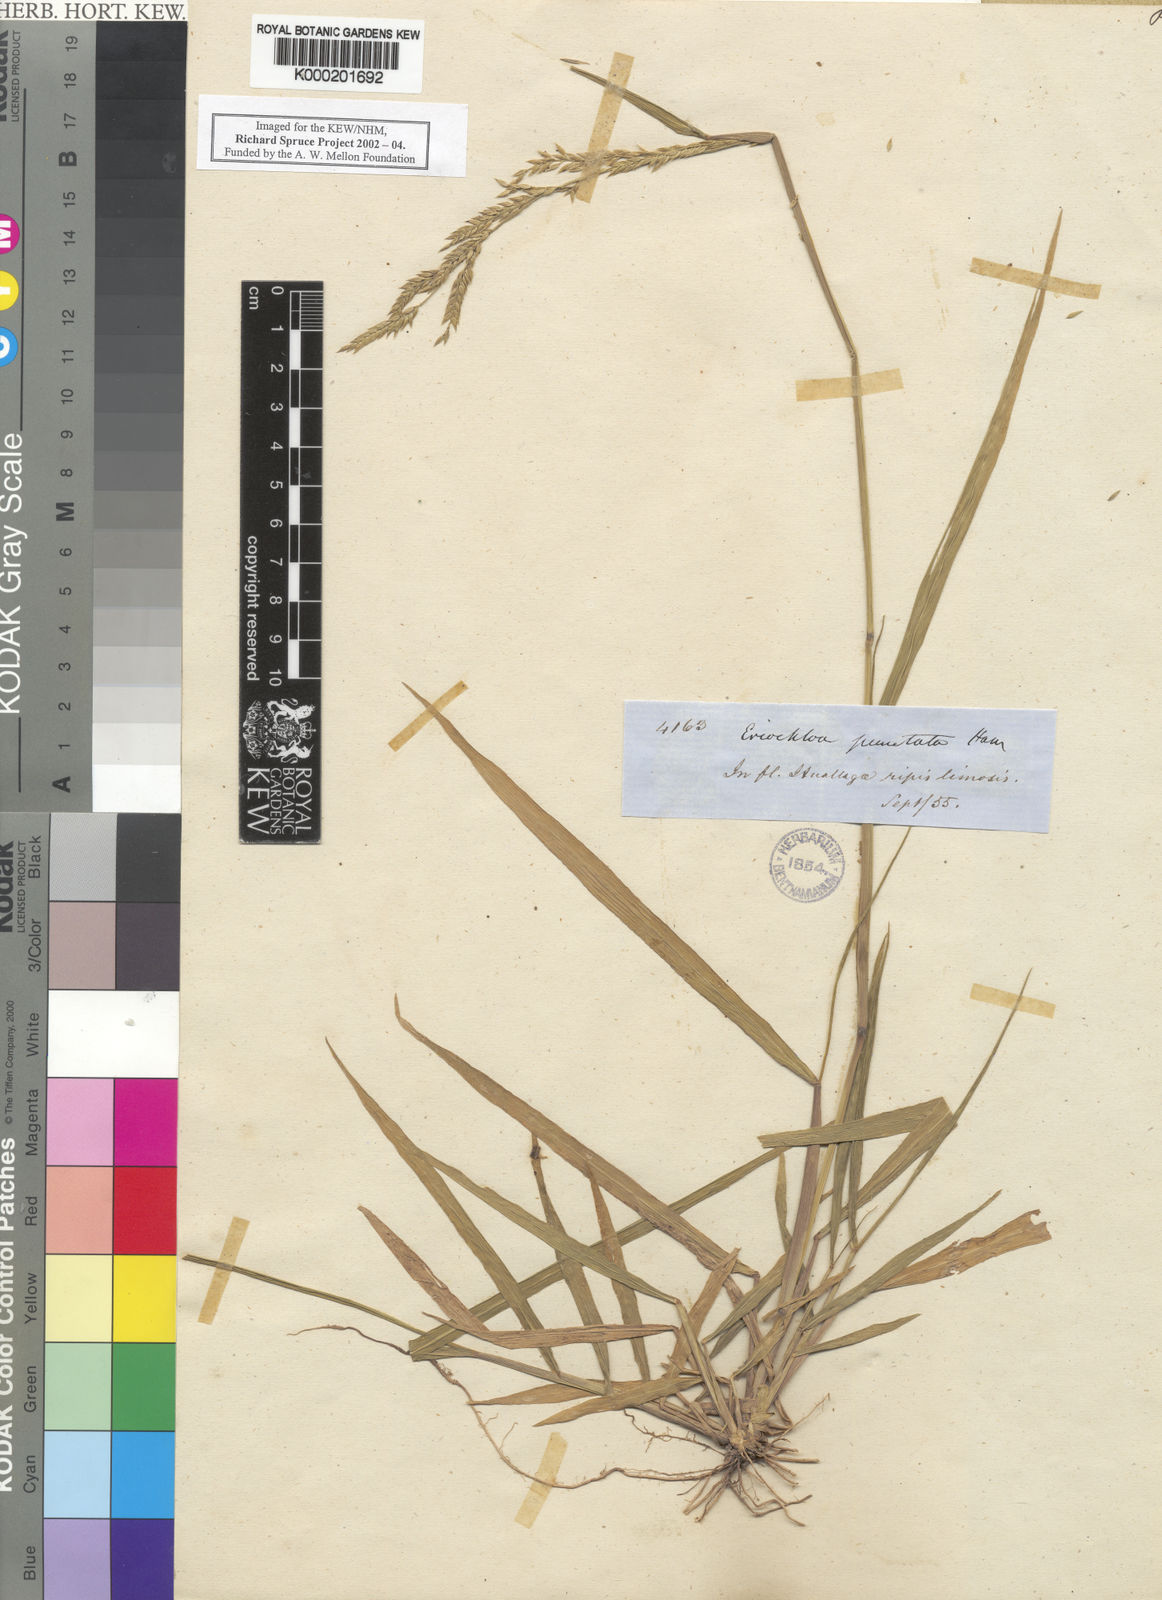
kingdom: Plantae
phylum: Tracheophyta
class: Liliopsida
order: Poales
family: Poaceae
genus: Eriochloa
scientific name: Eriochloa punctata
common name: Louisiana cupgrass
